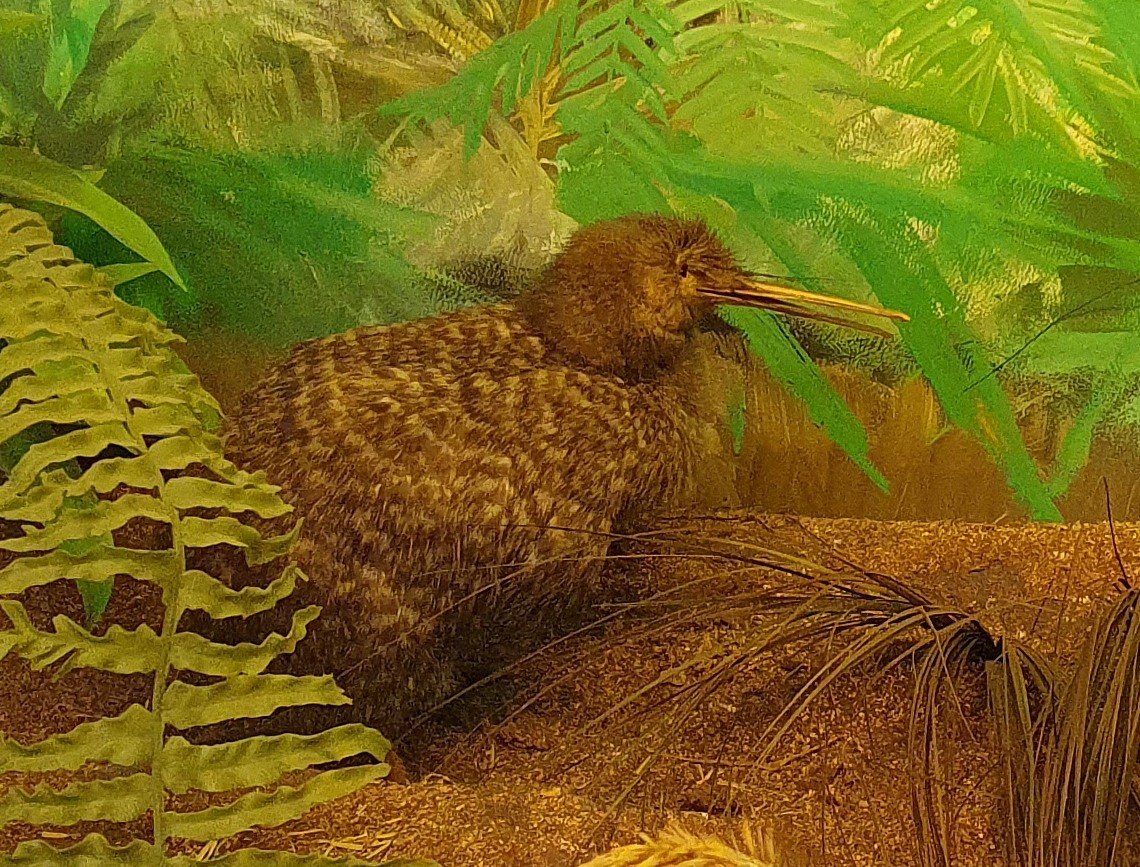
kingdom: Animalia
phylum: Chordata
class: Aves
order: Apterygiformes
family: Apterygidae
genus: Apteryx
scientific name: Apteryx owenii
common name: Little spotted kiwi
